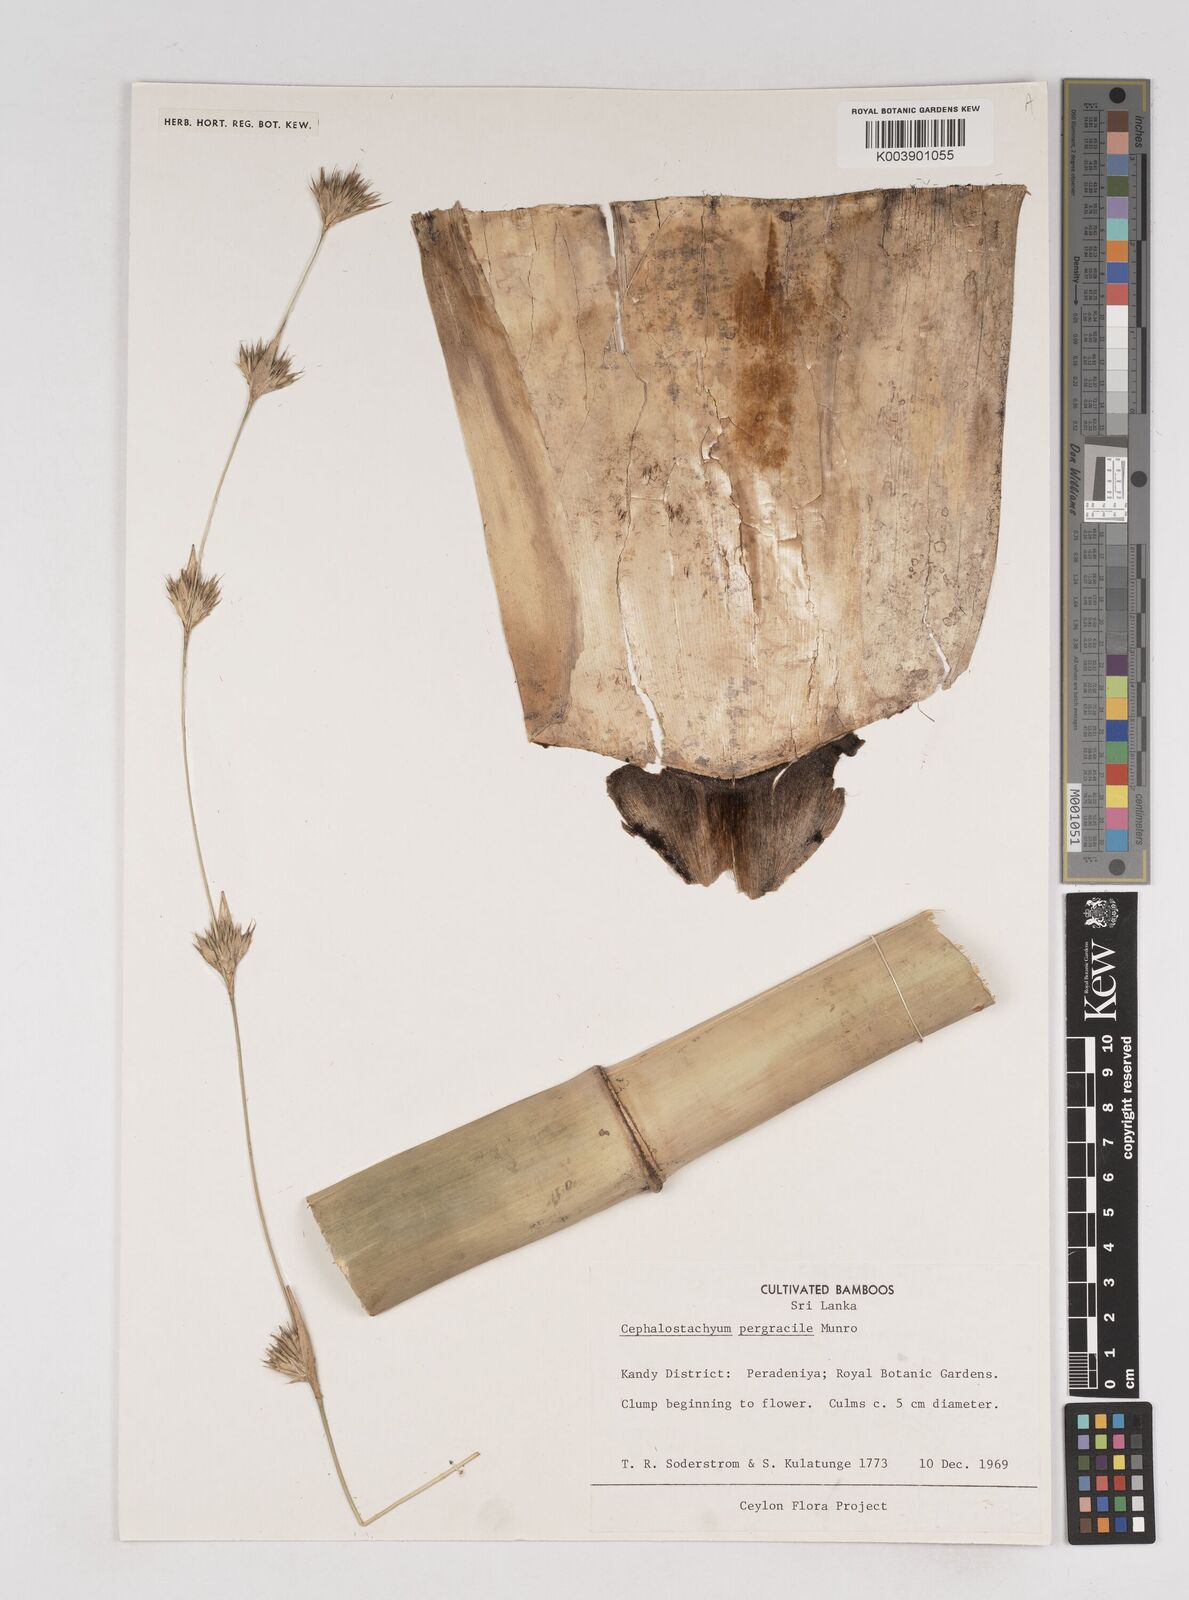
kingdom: Plantae
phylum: Tracheophyta
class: Liliopsida
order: Poales
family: Poaceae
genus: Cephalostachyum
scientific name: Cephalostachyum
